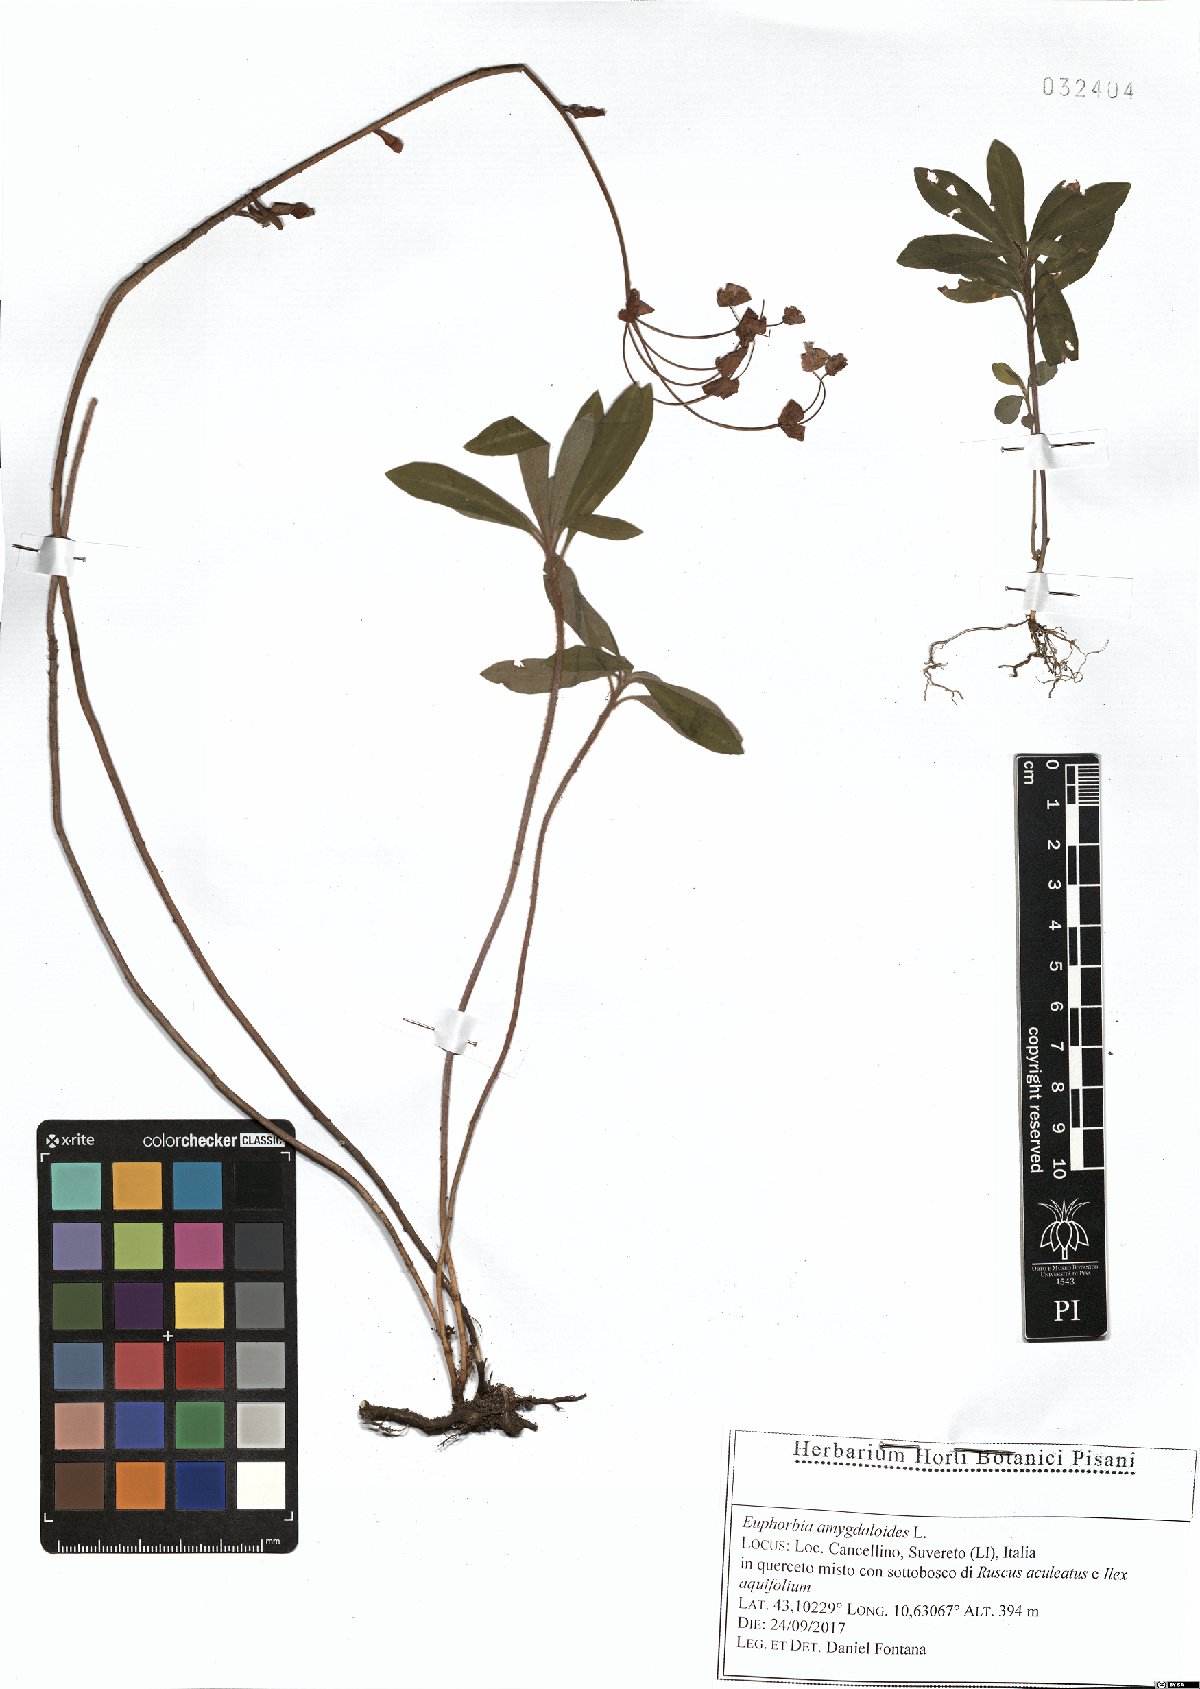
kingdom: Plantae
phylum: Tracheophyta
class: Magnoliopsida
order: Malpighiales
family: Euphorbiaceae
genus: Euphorbia
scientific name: Euphorbia amygdaloides
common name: Wood spurge
